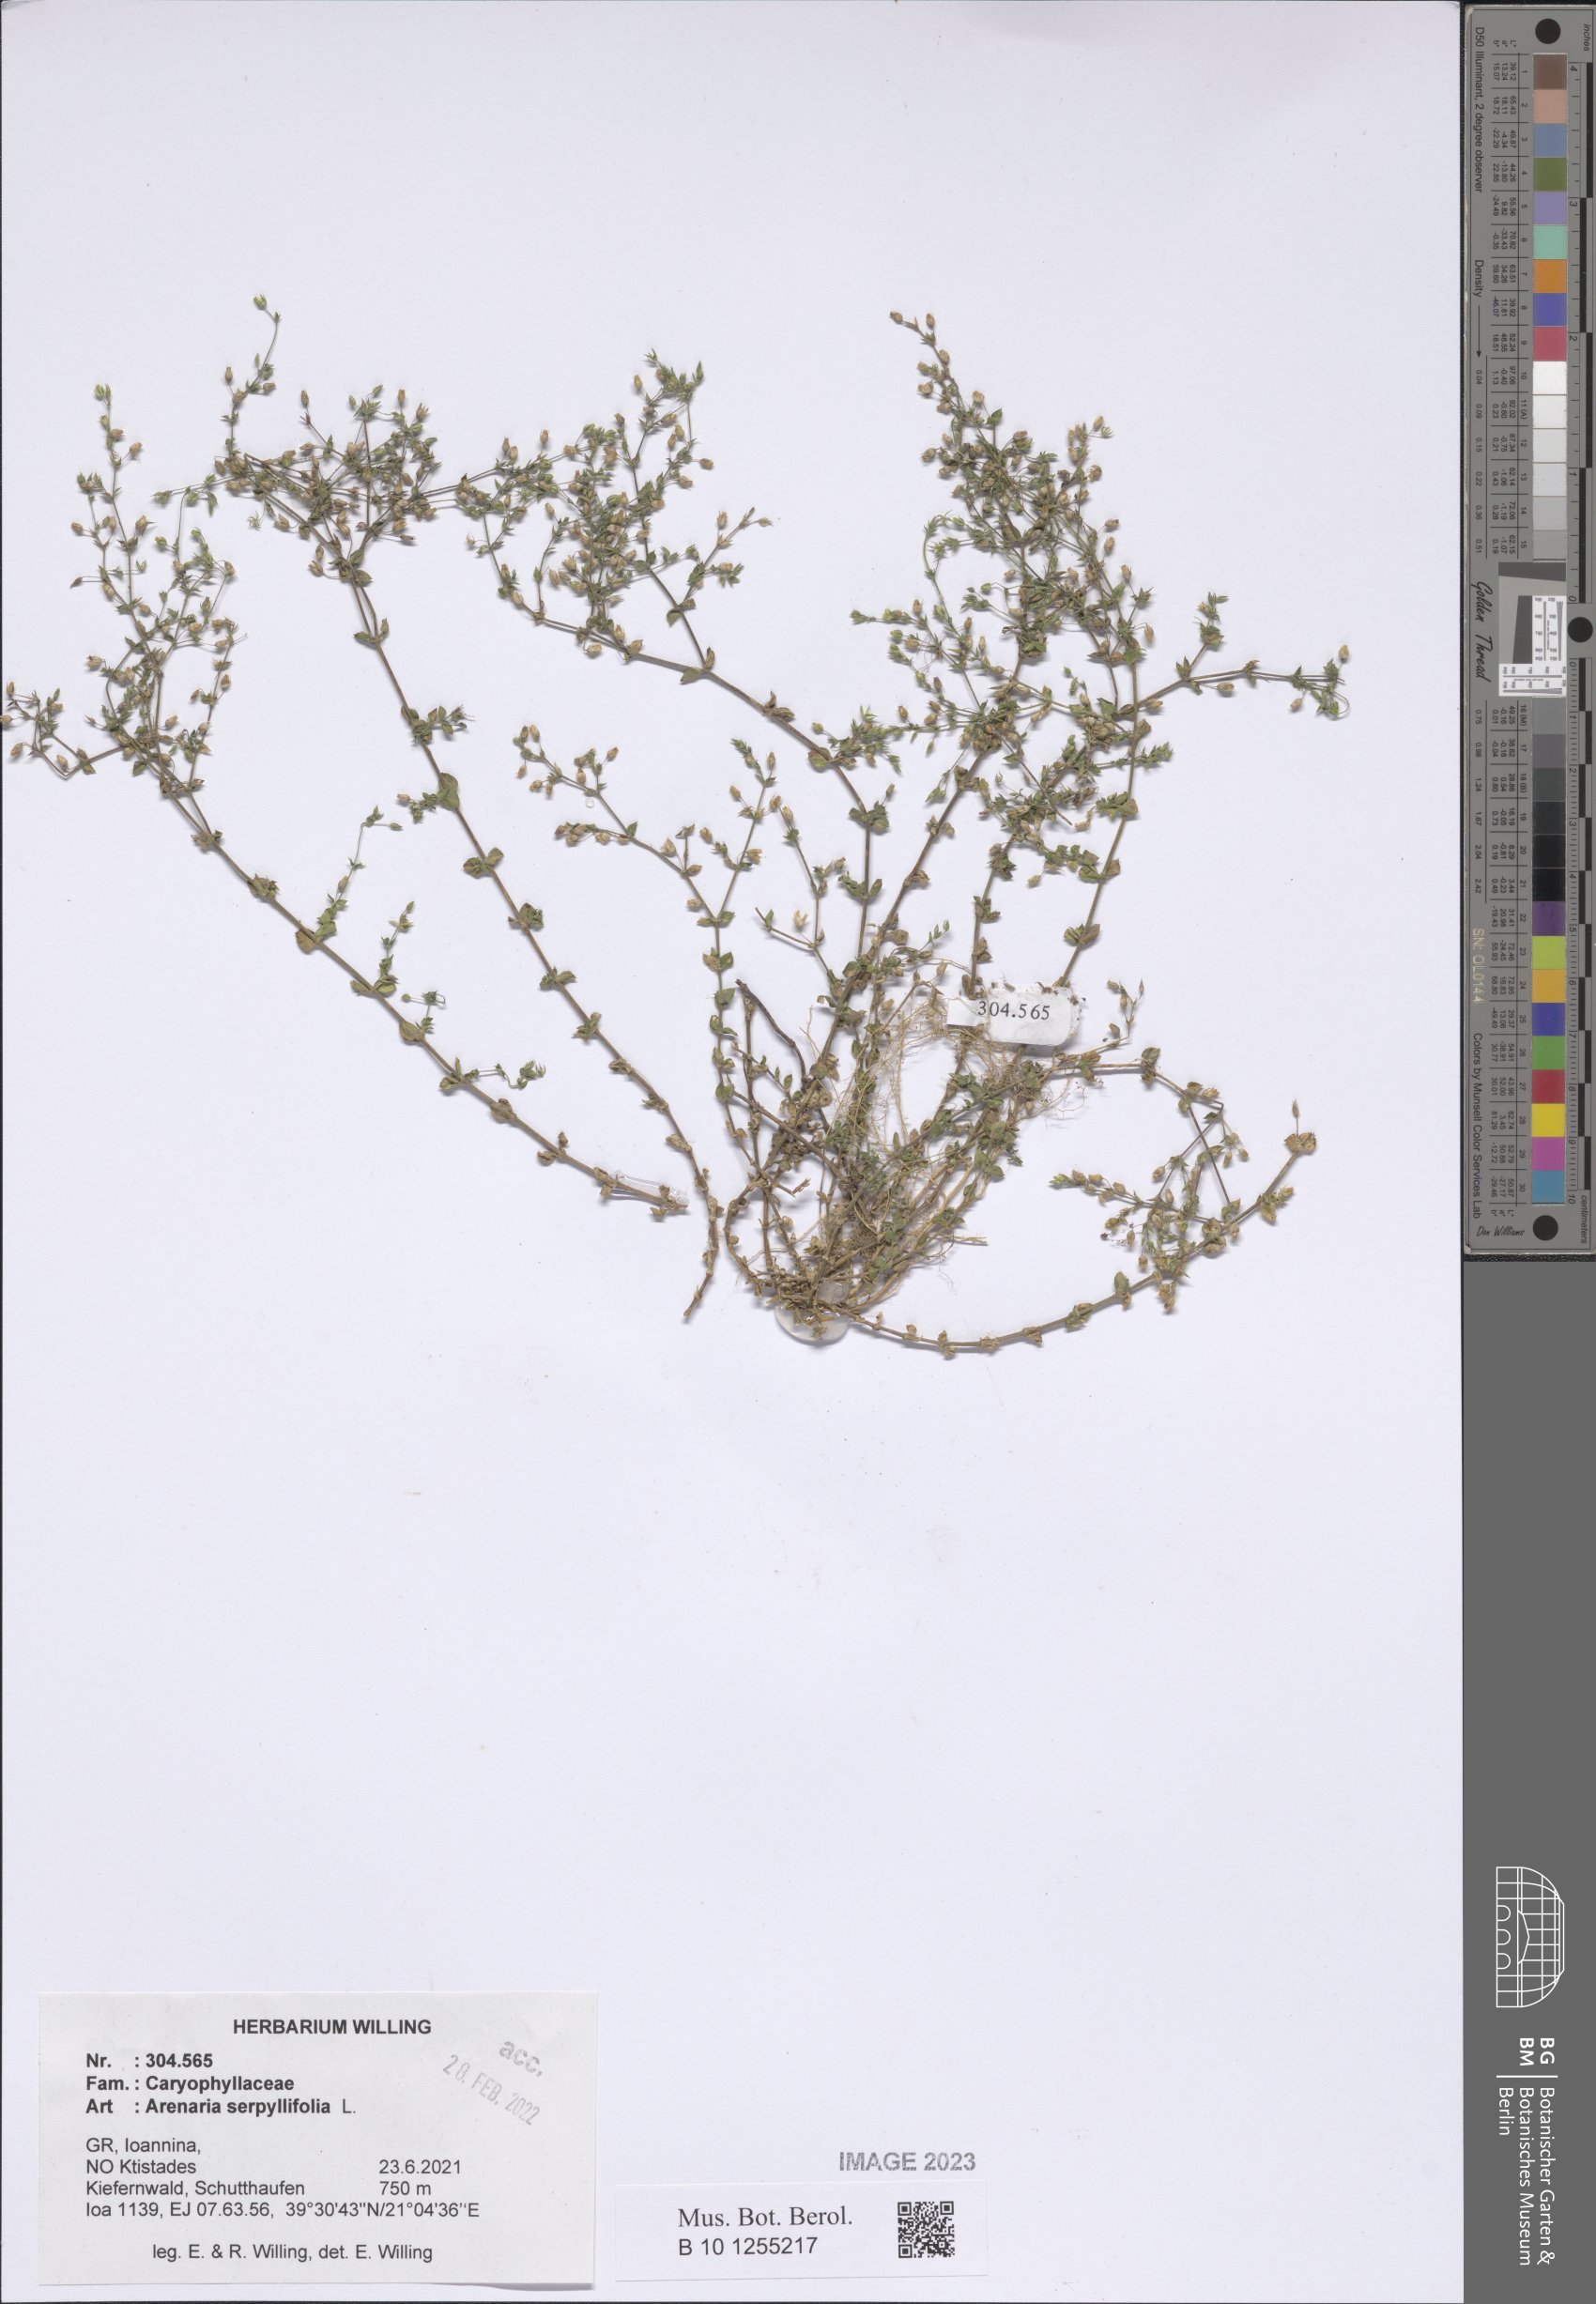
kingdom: Plantae
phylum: Tracheophyta
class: Magnoliopsida
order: Caryophyllales
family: Caryophyllaceae
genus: Arenaria
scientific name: Arenaria serpyllifolia
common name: Thyme-leaved sandwort
